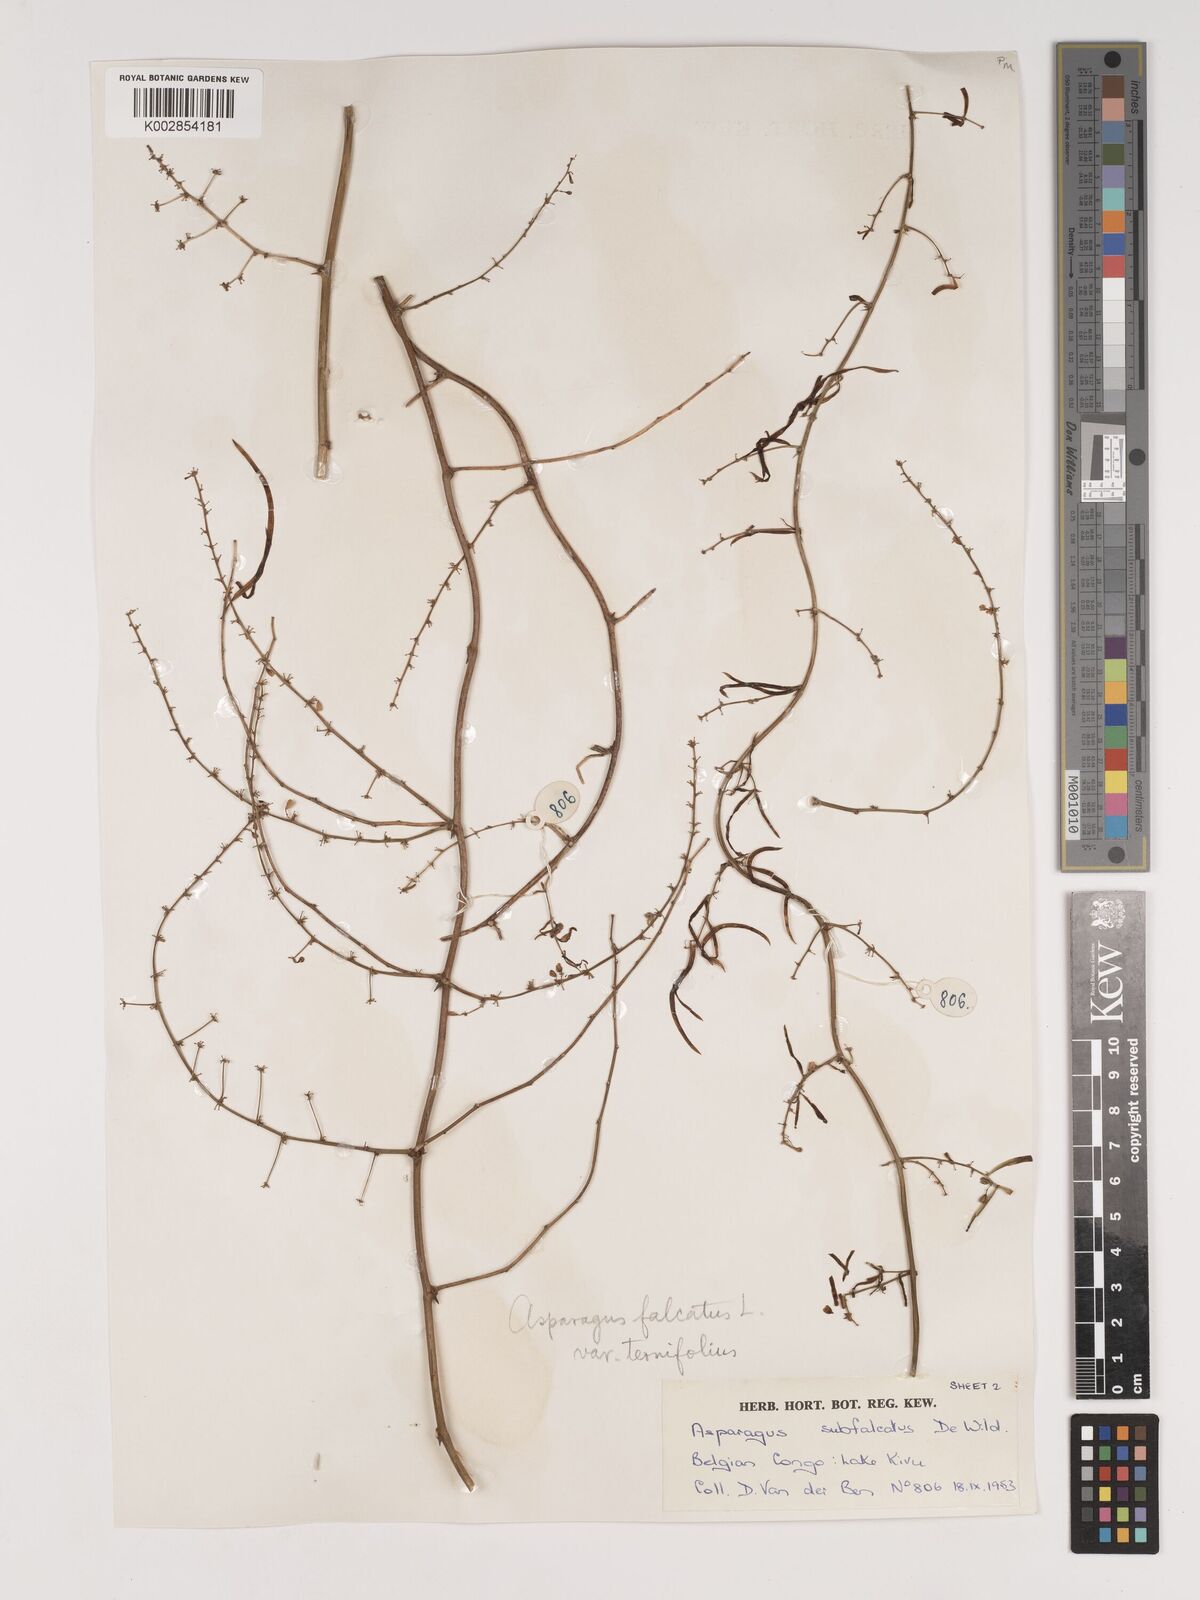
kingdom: Plantae
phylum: Tracheophyta
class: Liliopsida
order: Asparagales
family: Asparagaceae
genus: Asparagus
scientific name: Asparagus falcatus
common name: Asparagus
